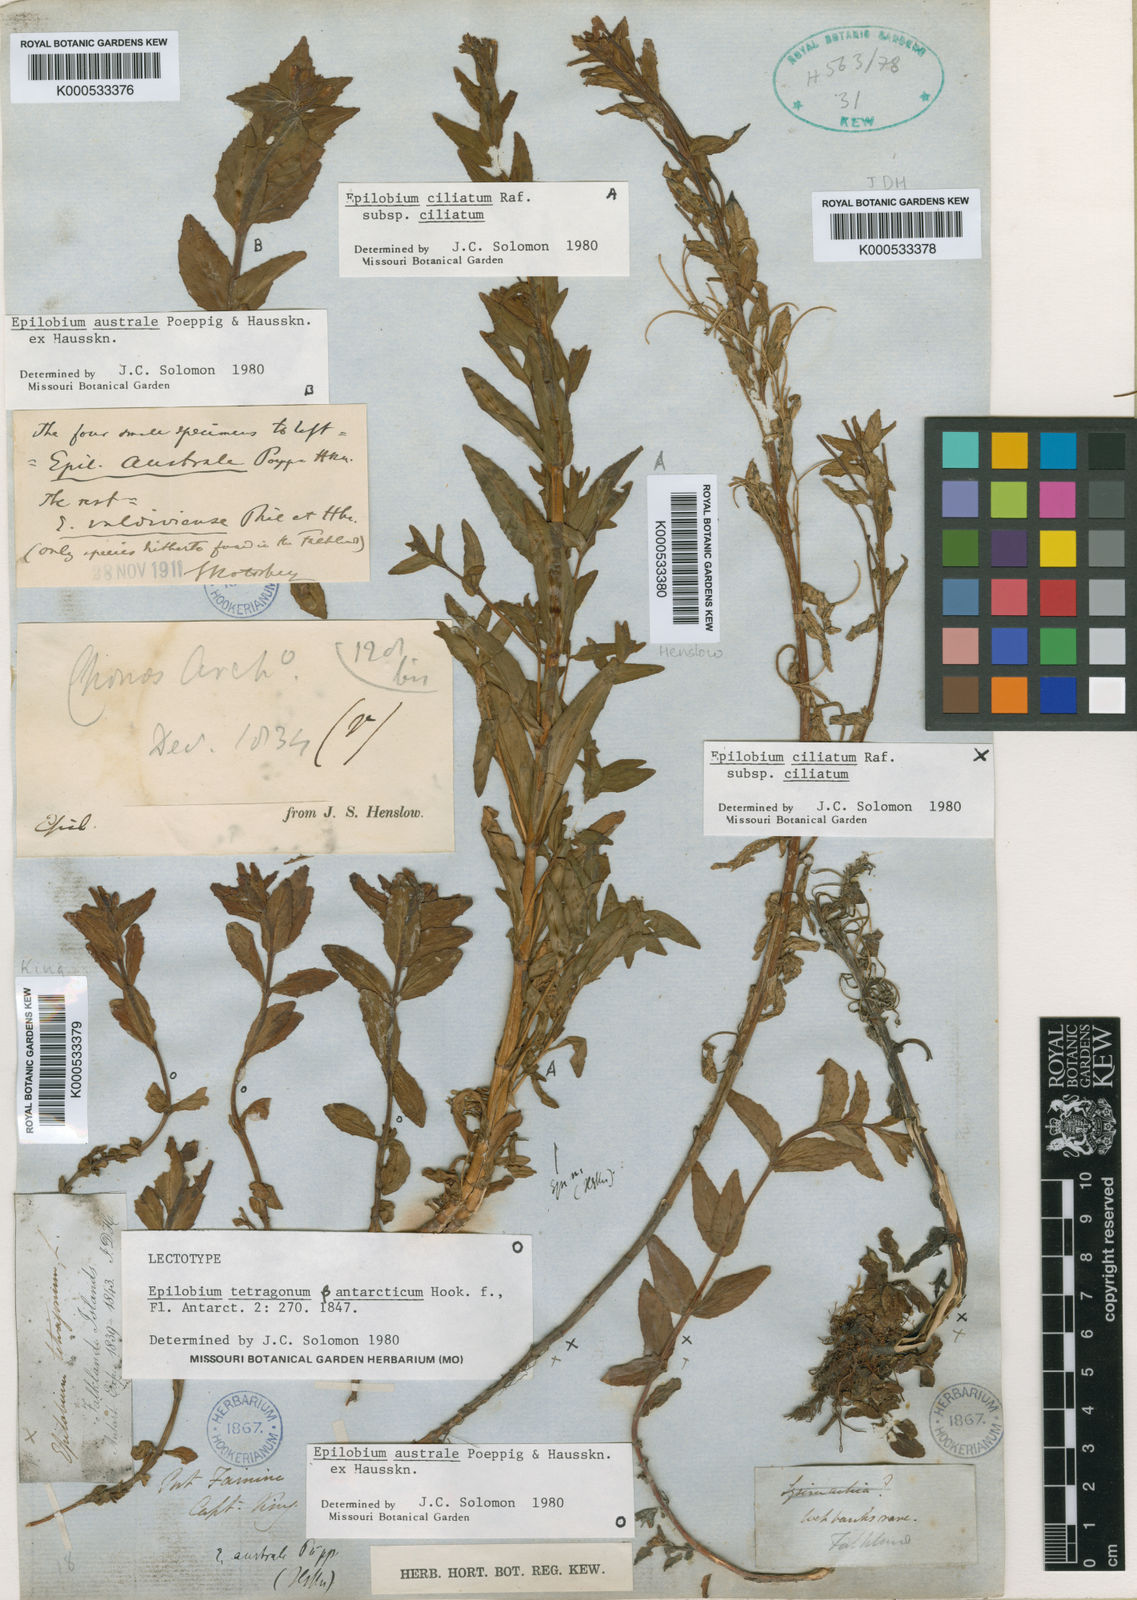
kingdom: Plantae
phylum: Tracheophyta
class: Magnoliopsida
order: Myrtales
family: Onagraceae
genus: Epilobium
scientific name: Epilobium australe
